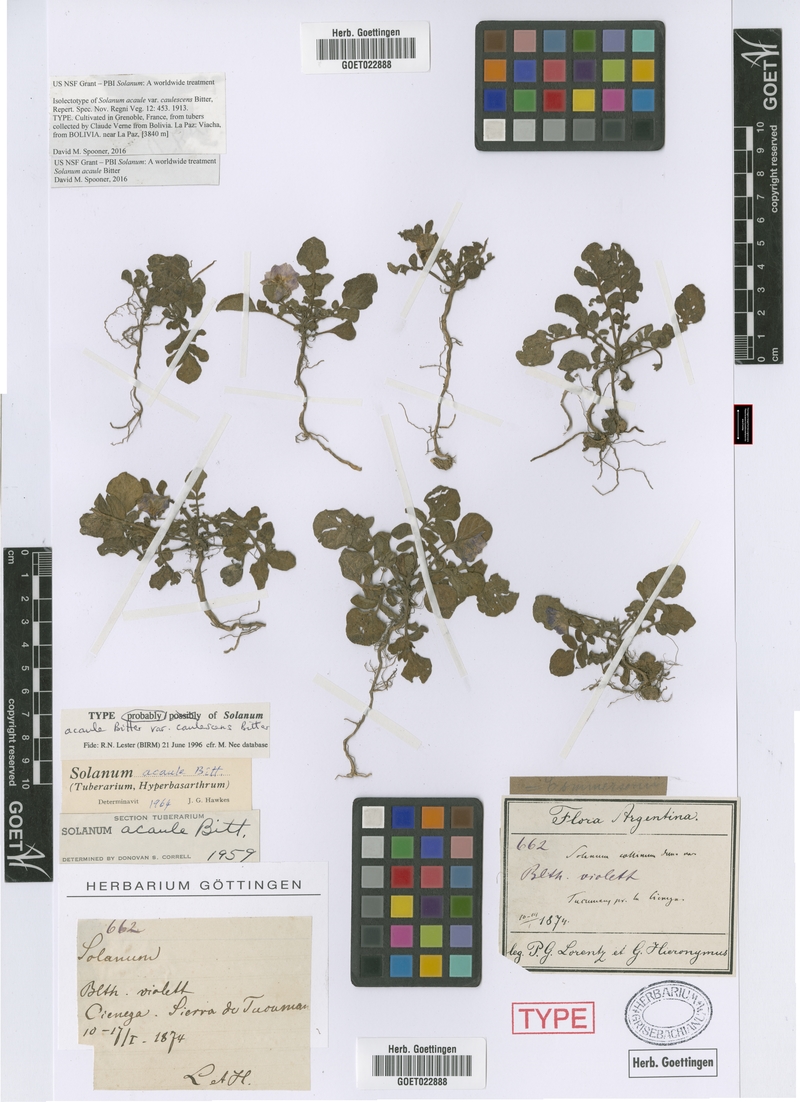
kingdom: Plantae
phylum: Tracheophyta
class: Magnoliopsida
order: Solanales
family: Solanaceae
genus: Solanum
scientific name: Solanum acaule
